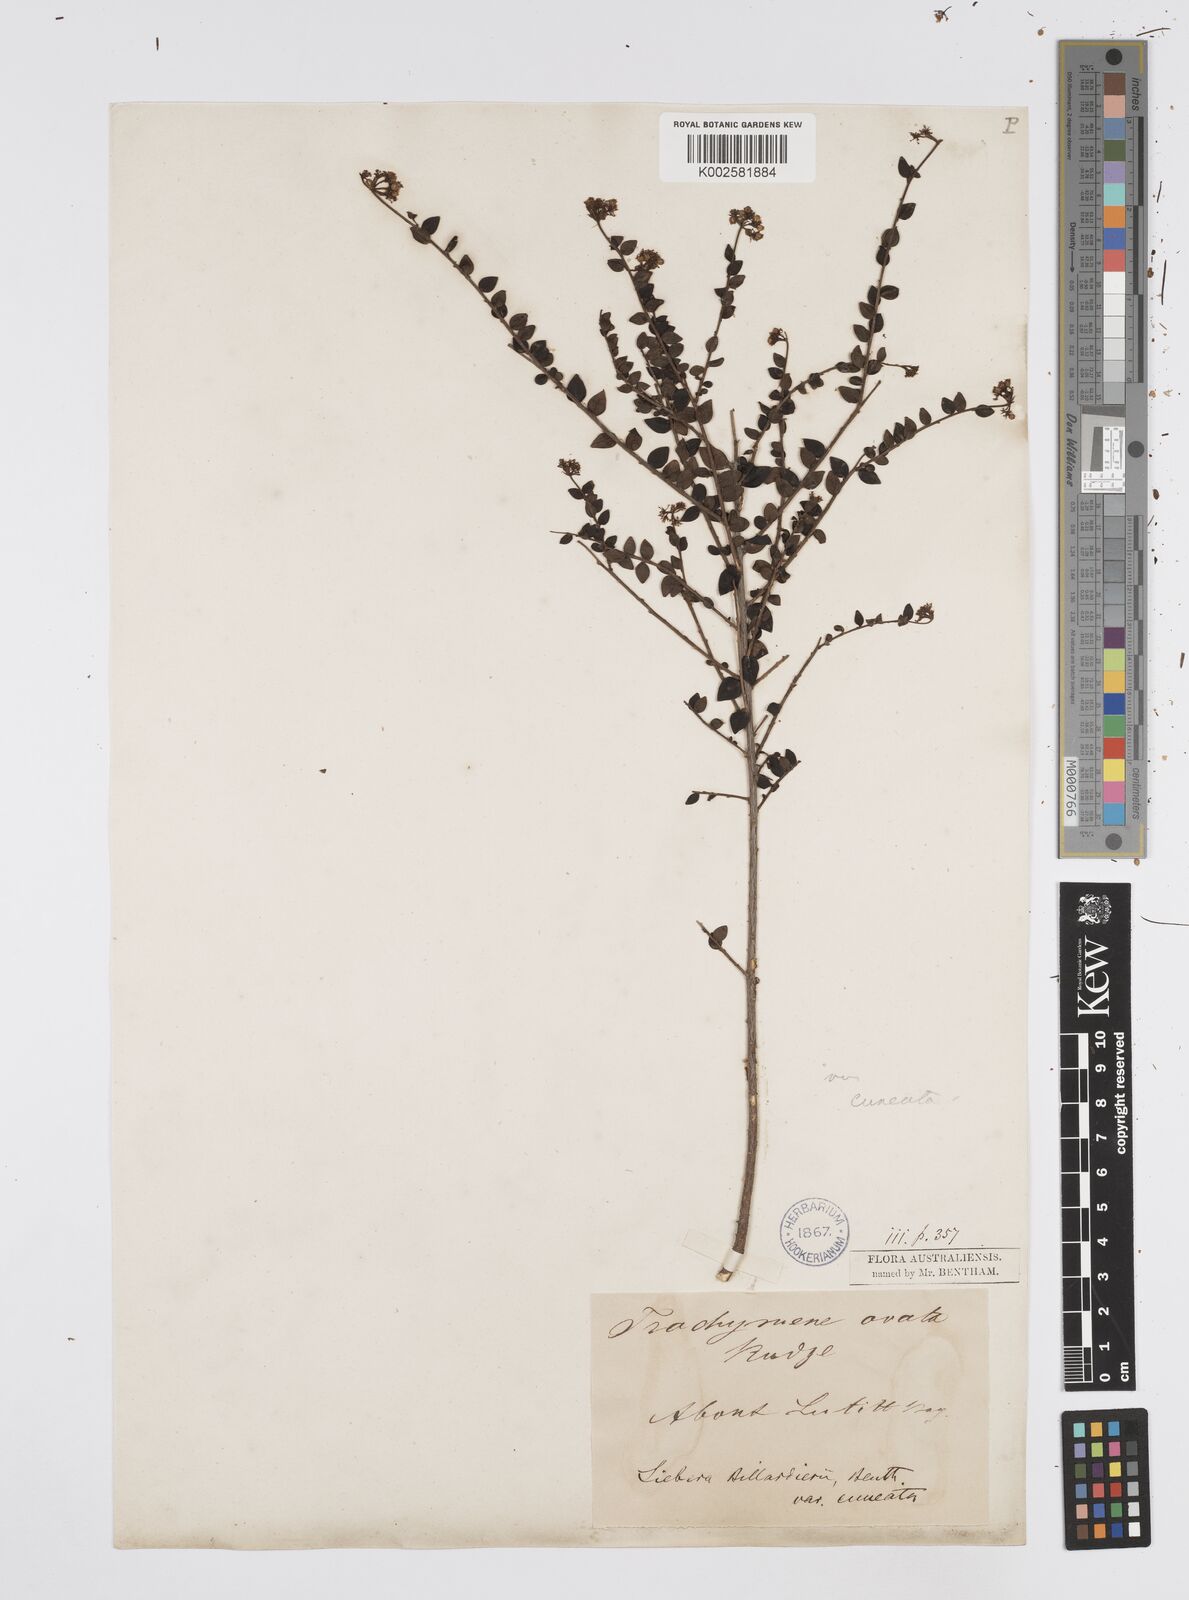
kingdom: Plantae
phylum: Tracheophyta
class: Magnoliopsida
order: Apiales
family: Apiaceae
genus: Platysace
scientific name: Platysace lanceolata
